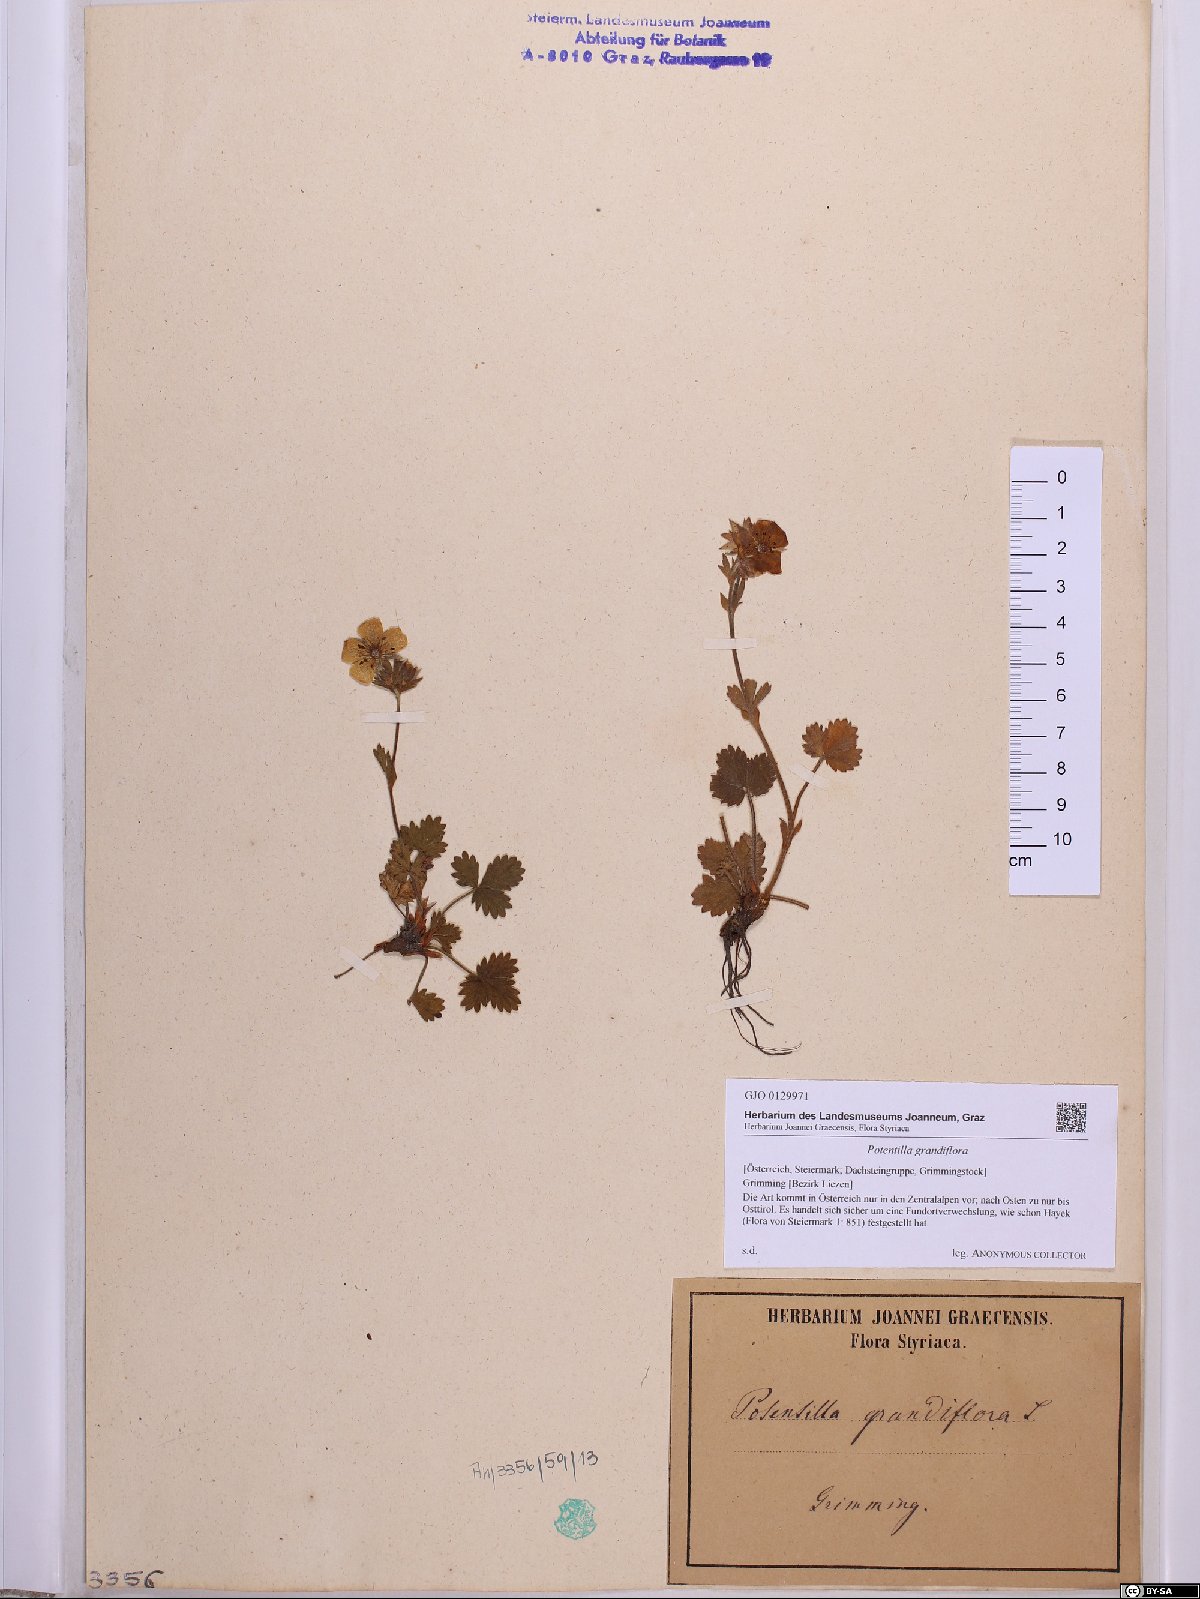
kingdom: Plantae
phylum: Tracheophyta
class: Magnoliopsida
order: Rosales
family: Rosaceae
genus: Potentilla
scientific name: Potentilla grandiflora
